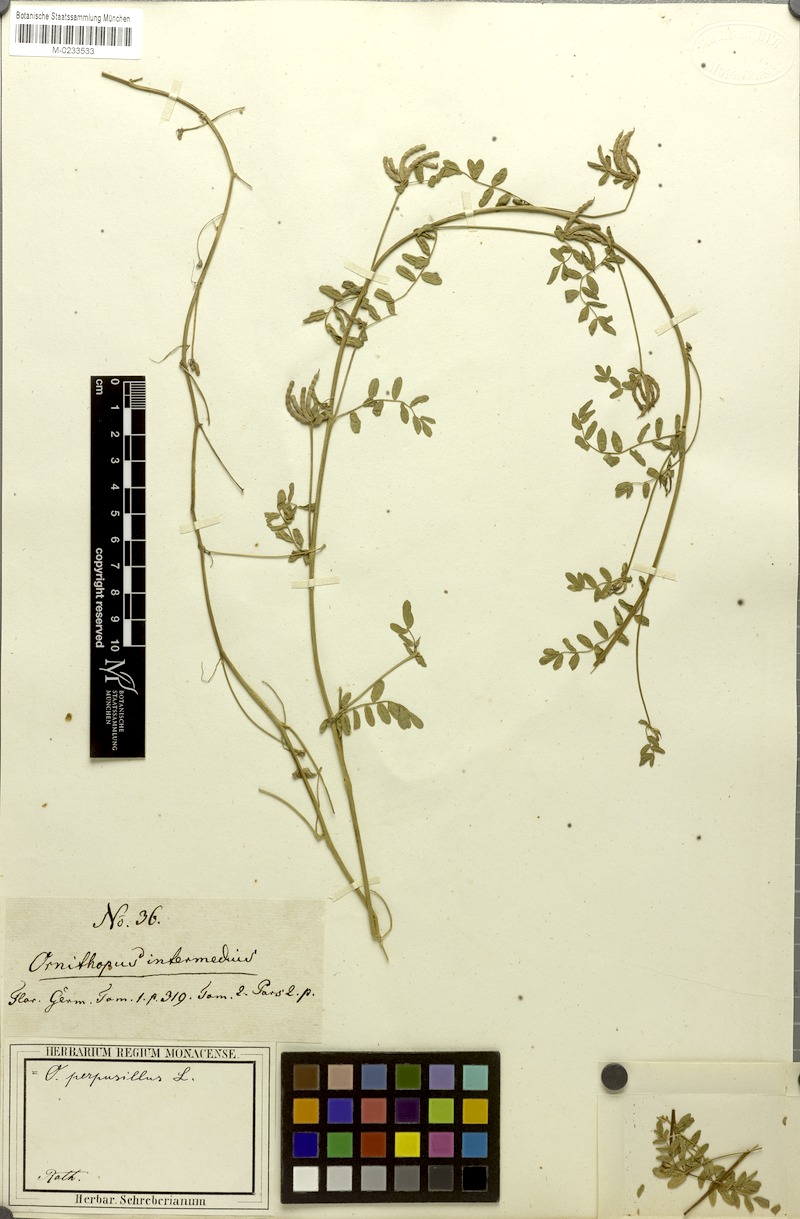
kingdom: Plantae
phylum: Tracheophyta
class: Magnoliopsida
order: Fabales
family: Fabaceae
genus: Ornithopus
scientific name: Ornithopus perpusillus
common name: Bird's-foot
